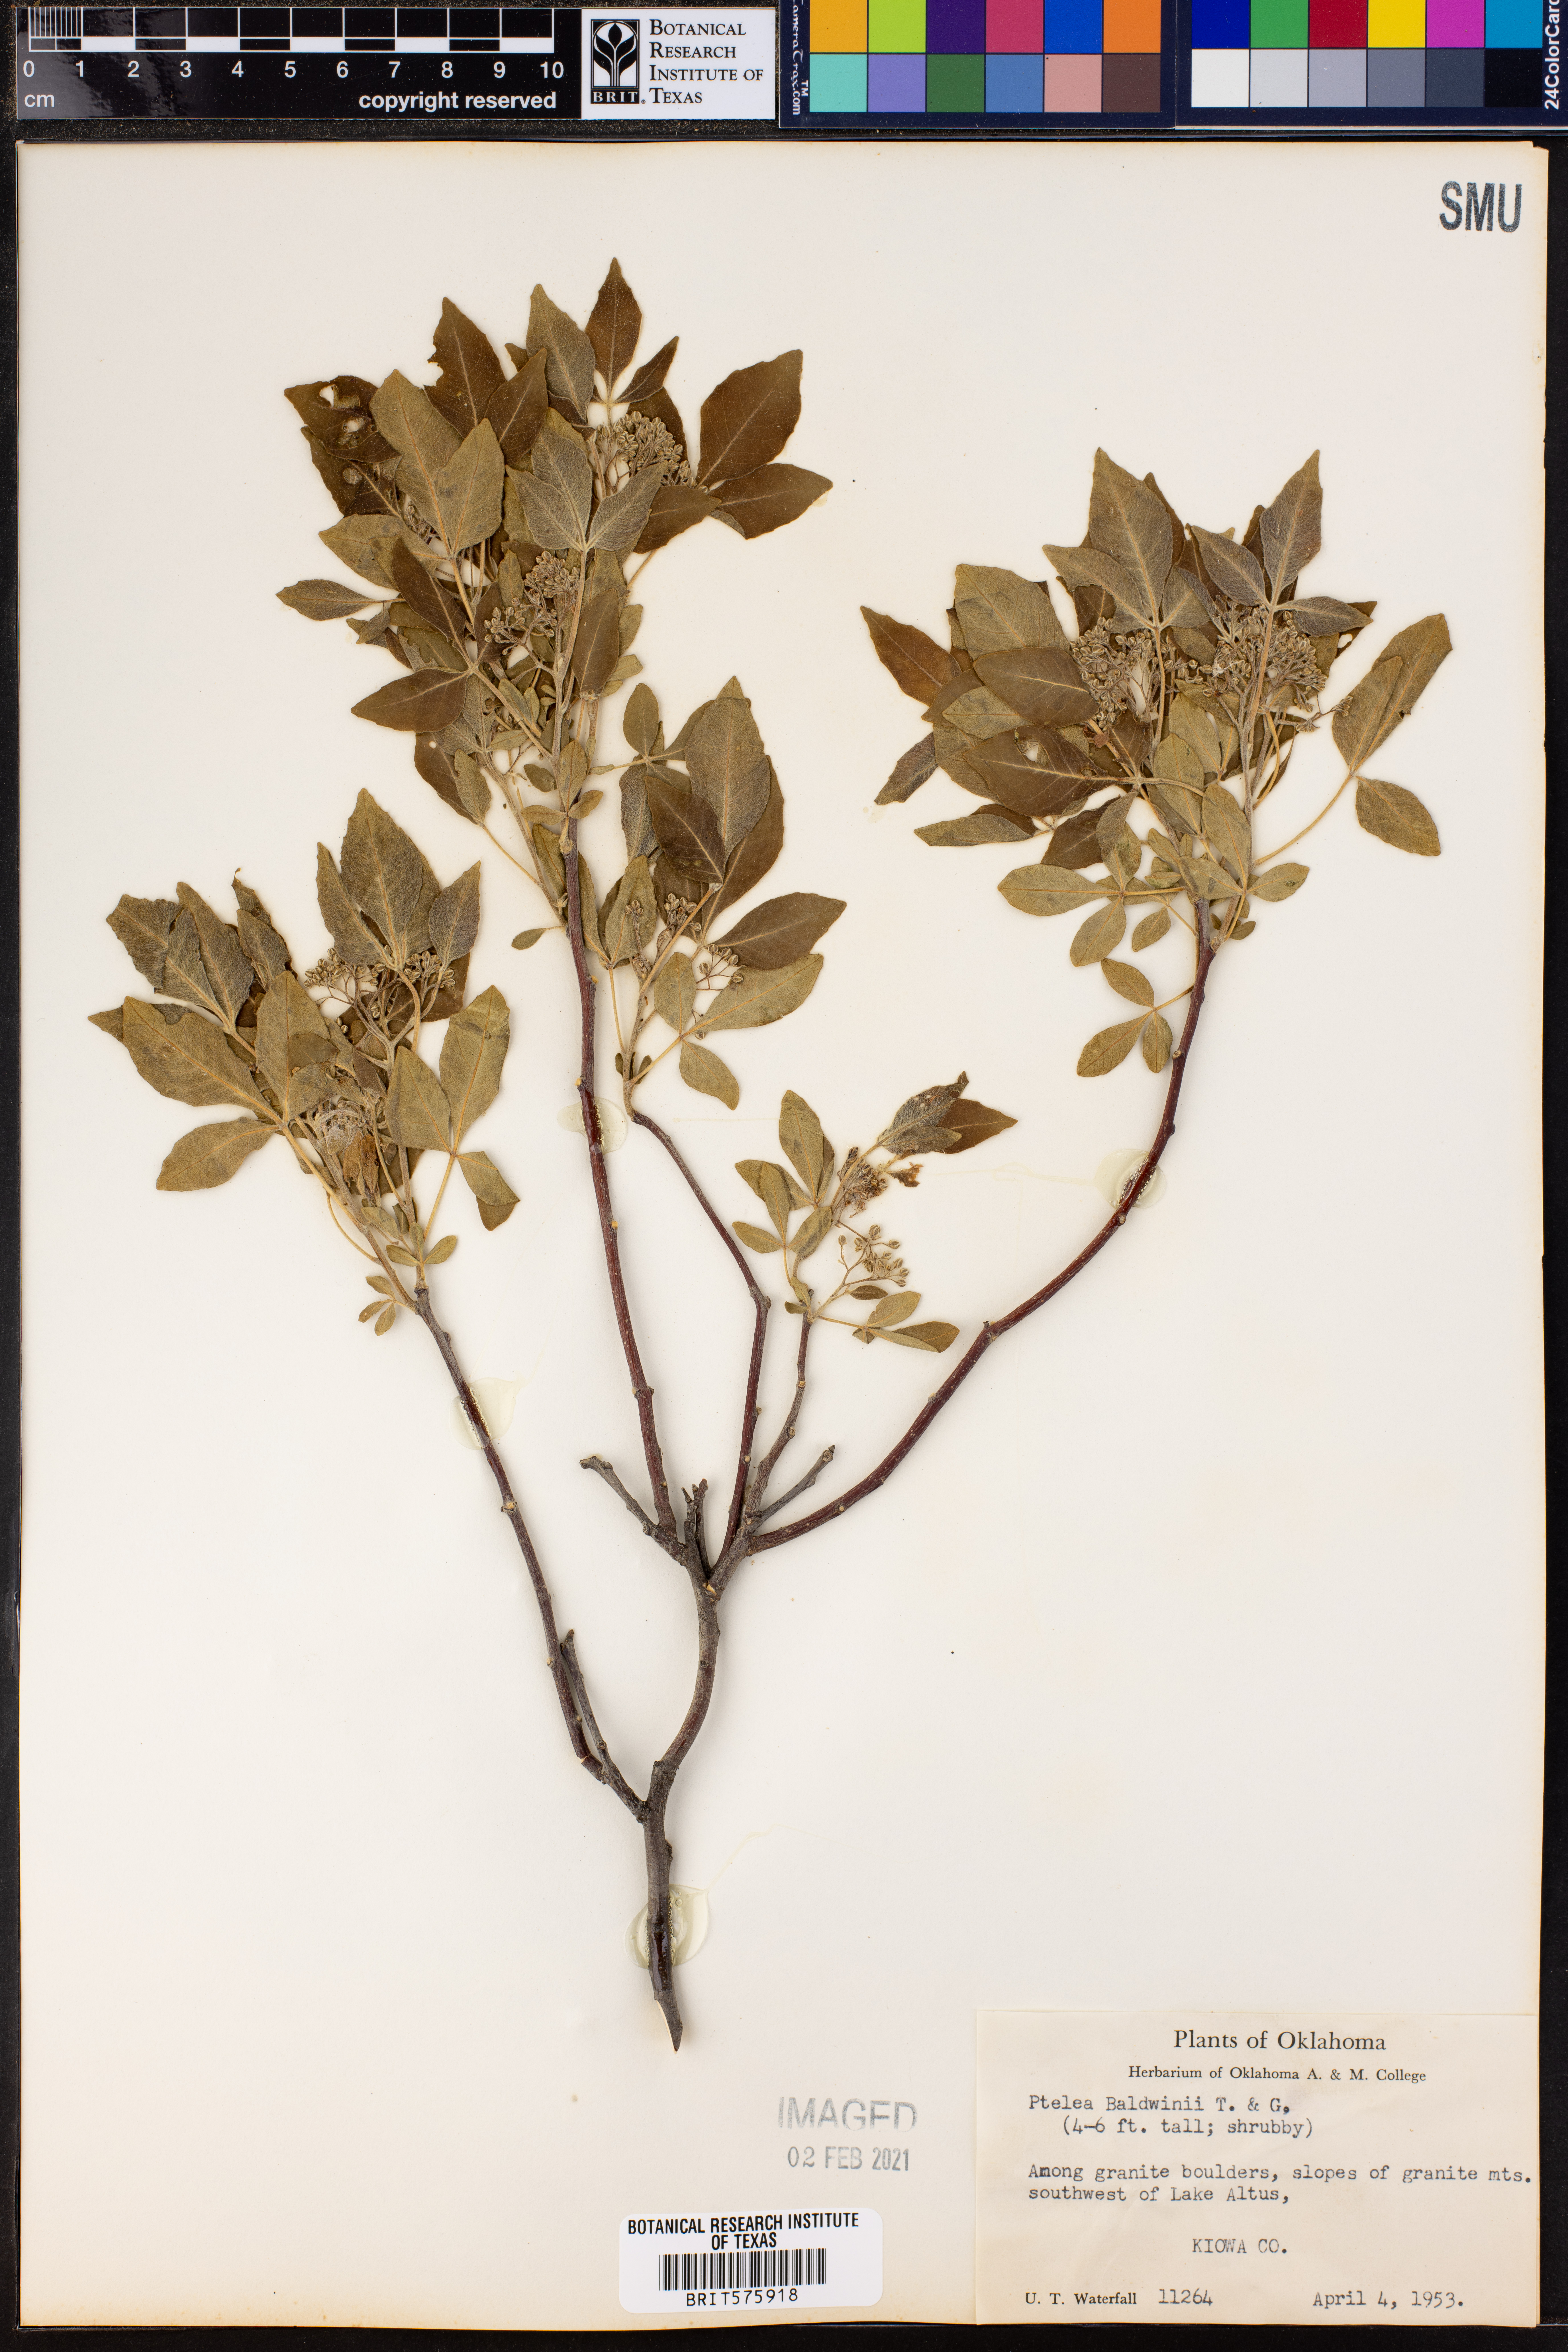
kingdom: Plantae
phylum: Tracheophyta
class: Magnoliopsida
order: Sapindales
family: Rutaceae
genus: Ptelea
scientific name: Ptelea trifoliata
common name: Common hop-tree
